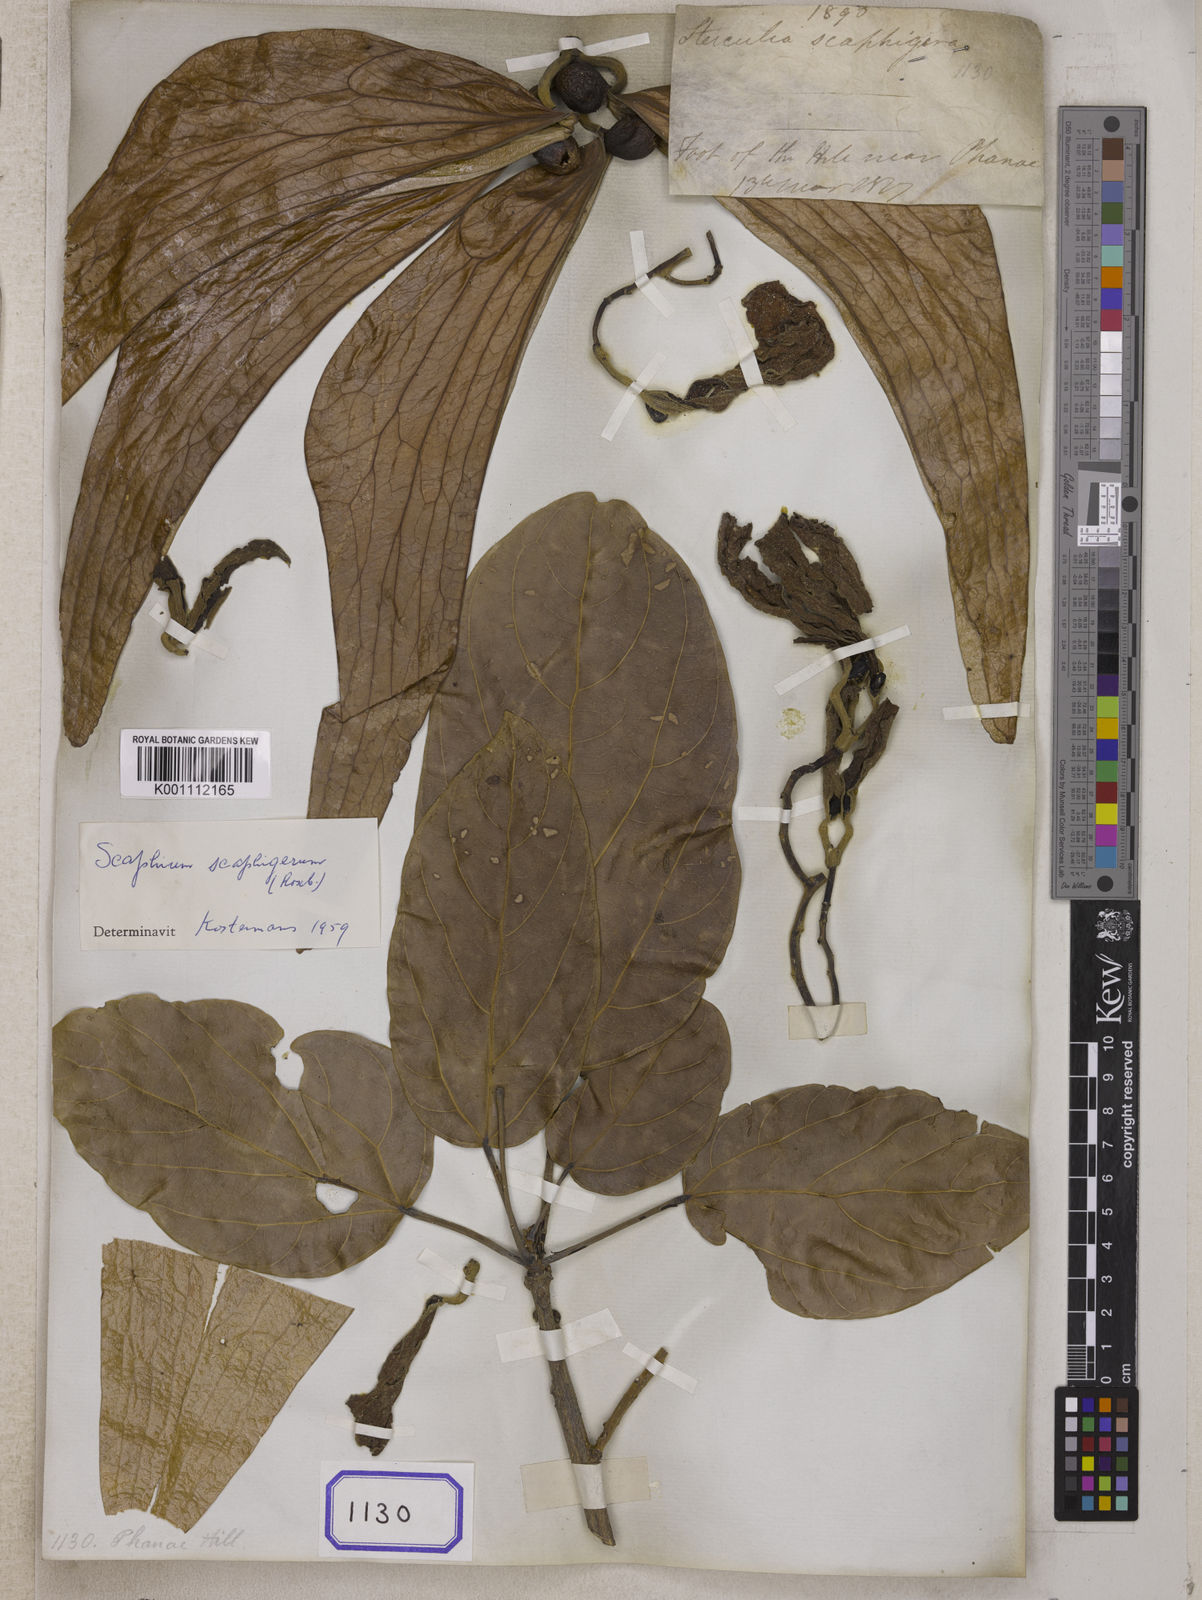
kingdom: Plantae
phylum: Tracheophyta
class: Magnoliopsida
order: Malvales
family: Malvaceae
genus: Sterculia
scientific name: Sterculia
